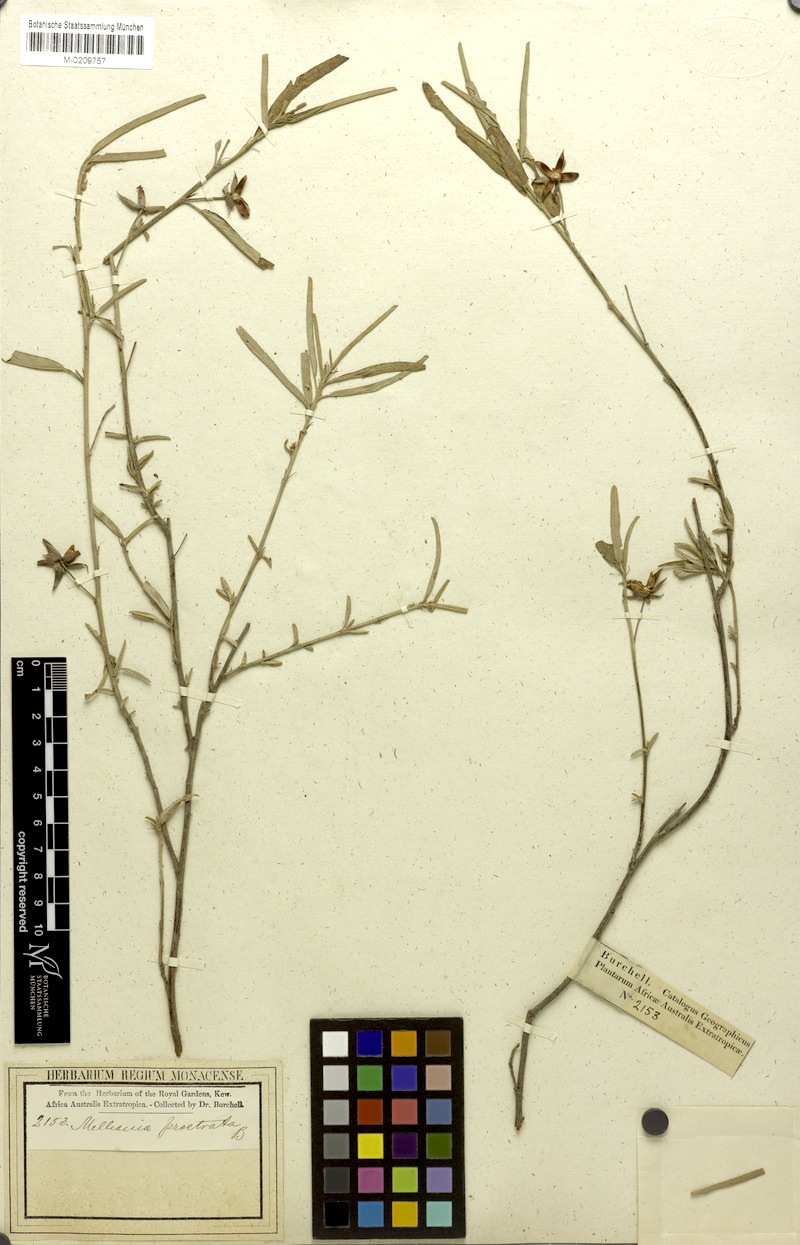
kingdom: Plantae
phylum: Tracheophyta
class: Magnoliopsida
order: Malvales
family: Malvaceae
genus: Melhania
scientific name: Melhania prostrata
